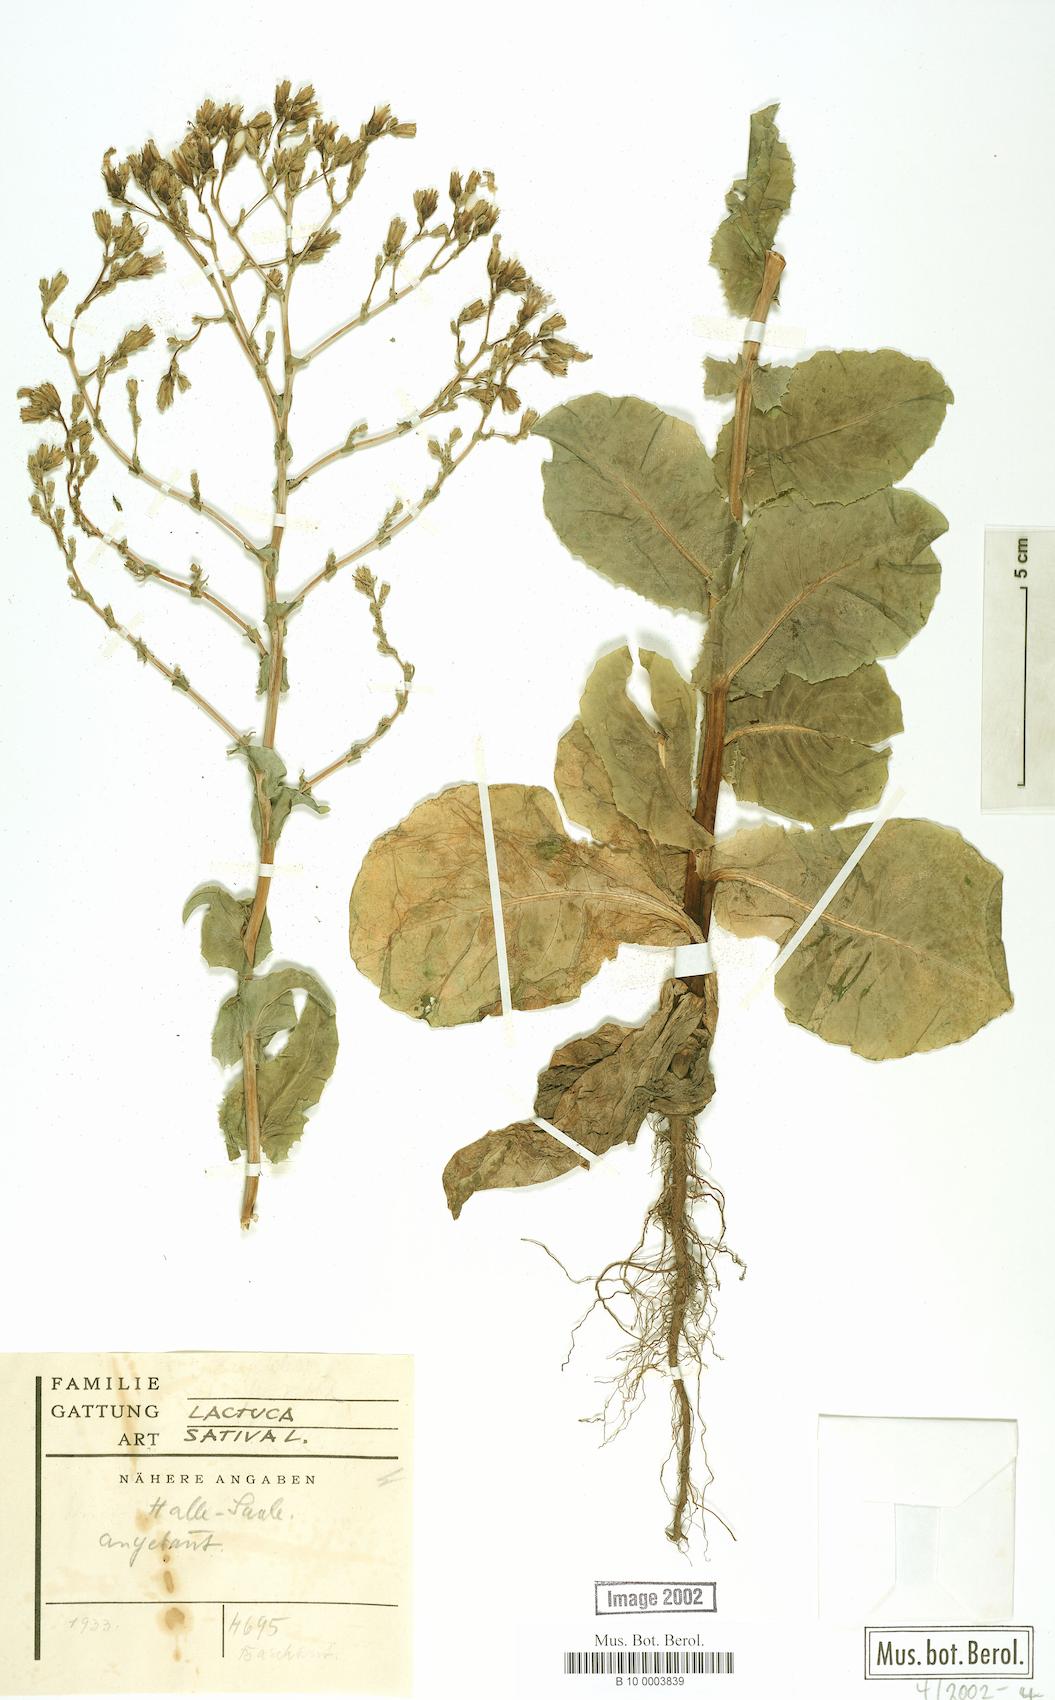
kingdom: Plantae
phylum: Tracheophyta
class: Magnoliopsida
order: Asterales
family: Asteraceae
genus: Lactuca
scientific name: Lactuca sativa
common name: Garden lettuce
